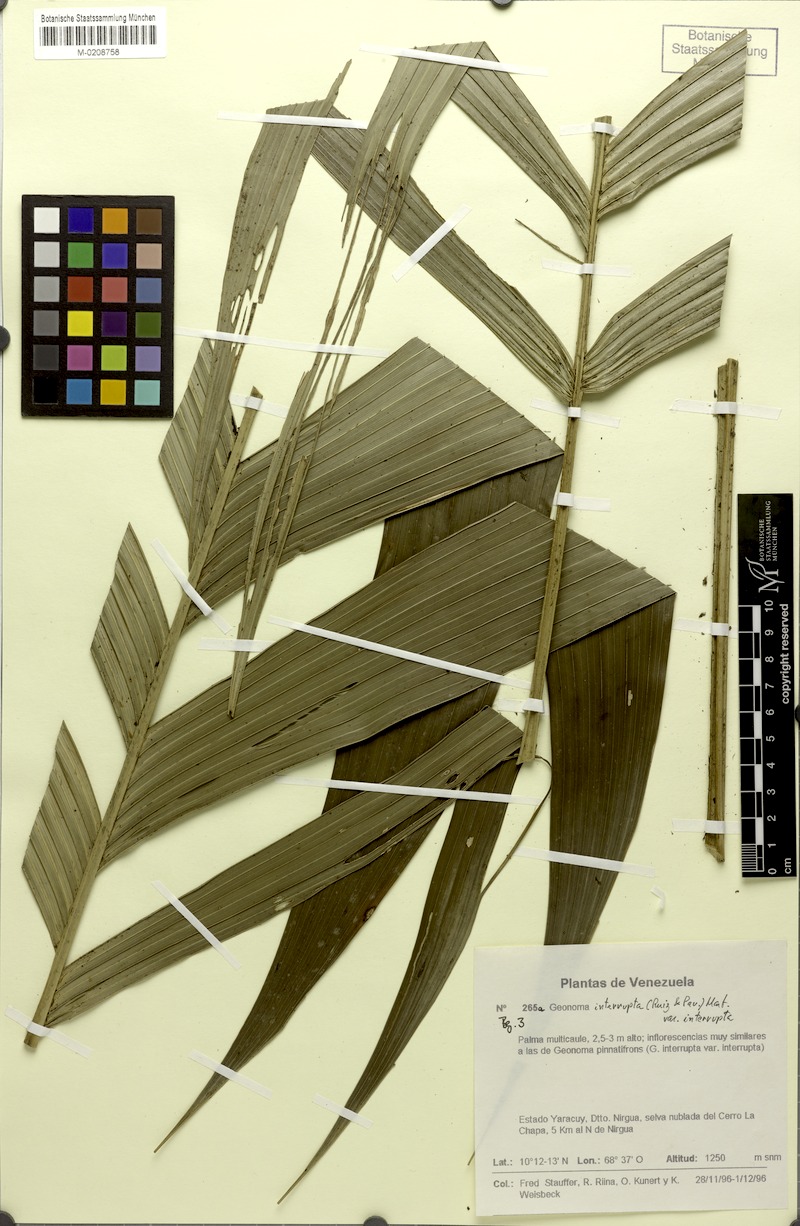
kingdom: Plantae
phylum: Tracheophyta
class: Liliopsida
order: Arecales
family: Arecaceae
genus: Geonoma
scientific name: Geonoma interrupta
